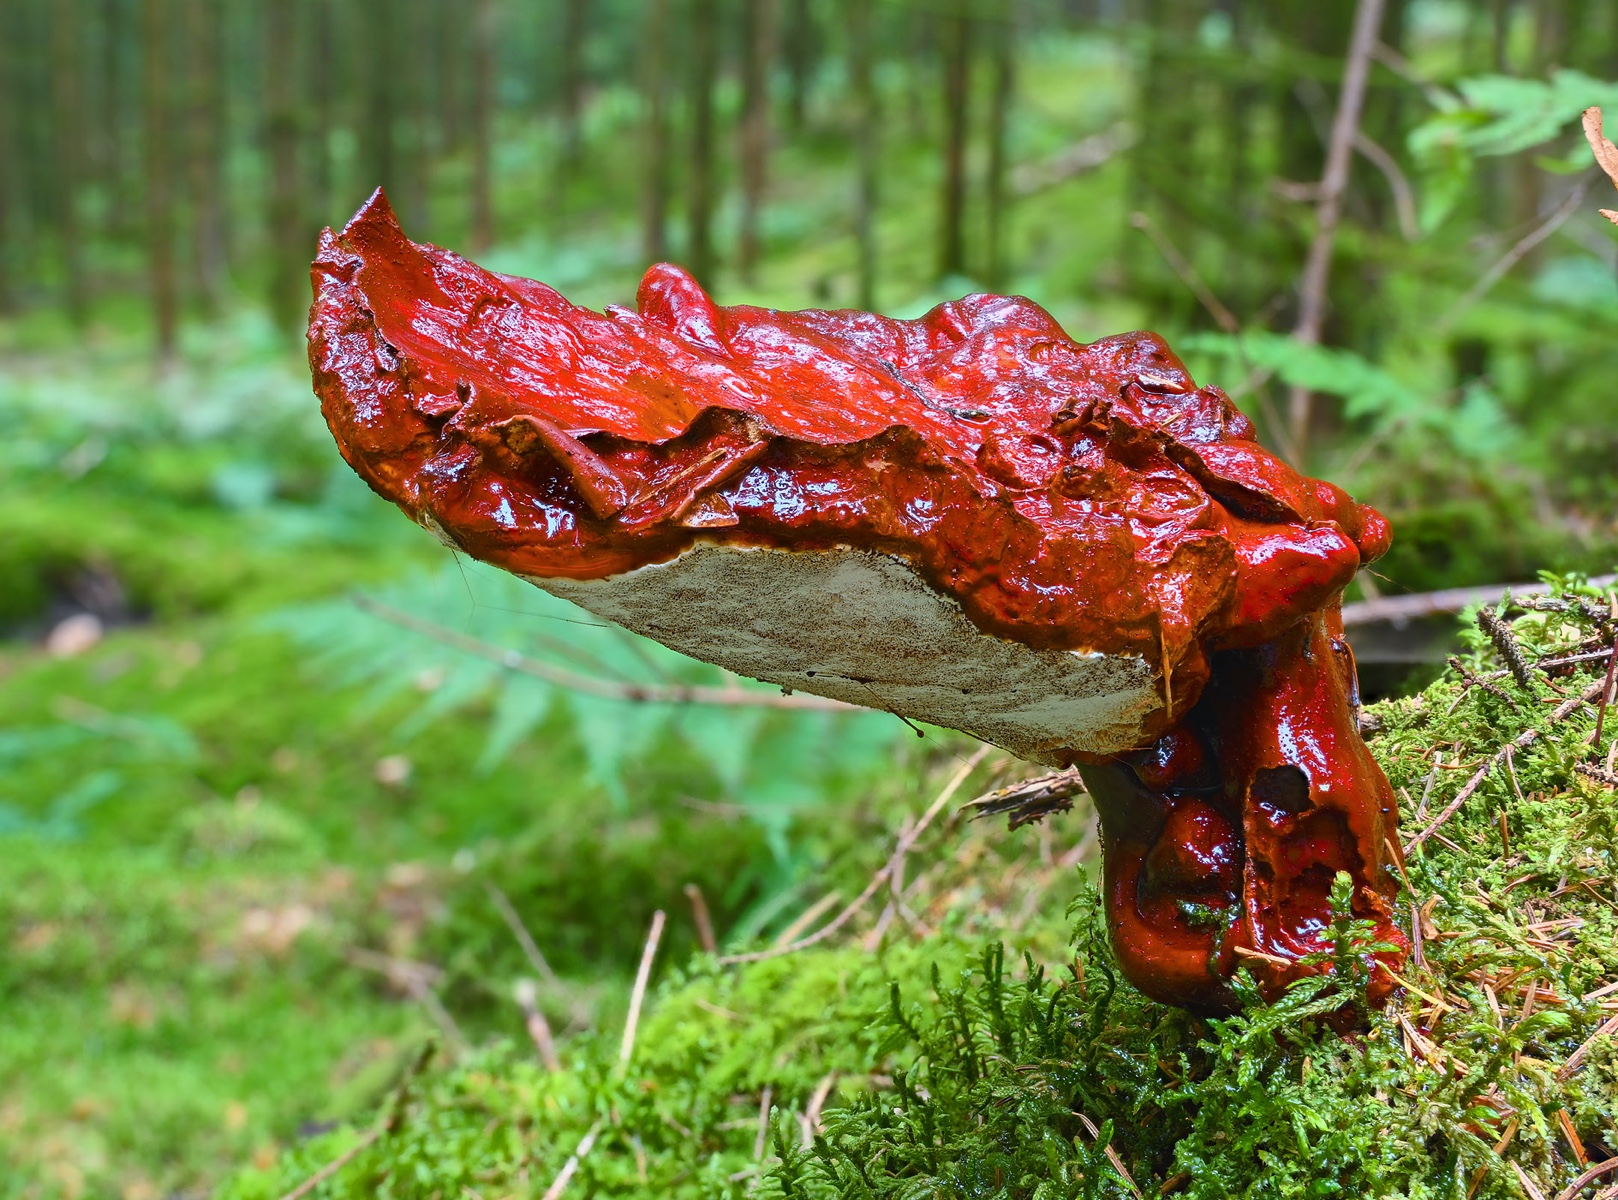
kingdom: Fungi
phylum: Basidiomycota
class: Agaricomycetes
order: Polyporales
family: Polyporaceae
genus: Ganoderma
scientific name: Ganoderma lucidum
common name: skinnende lakporesvamp
